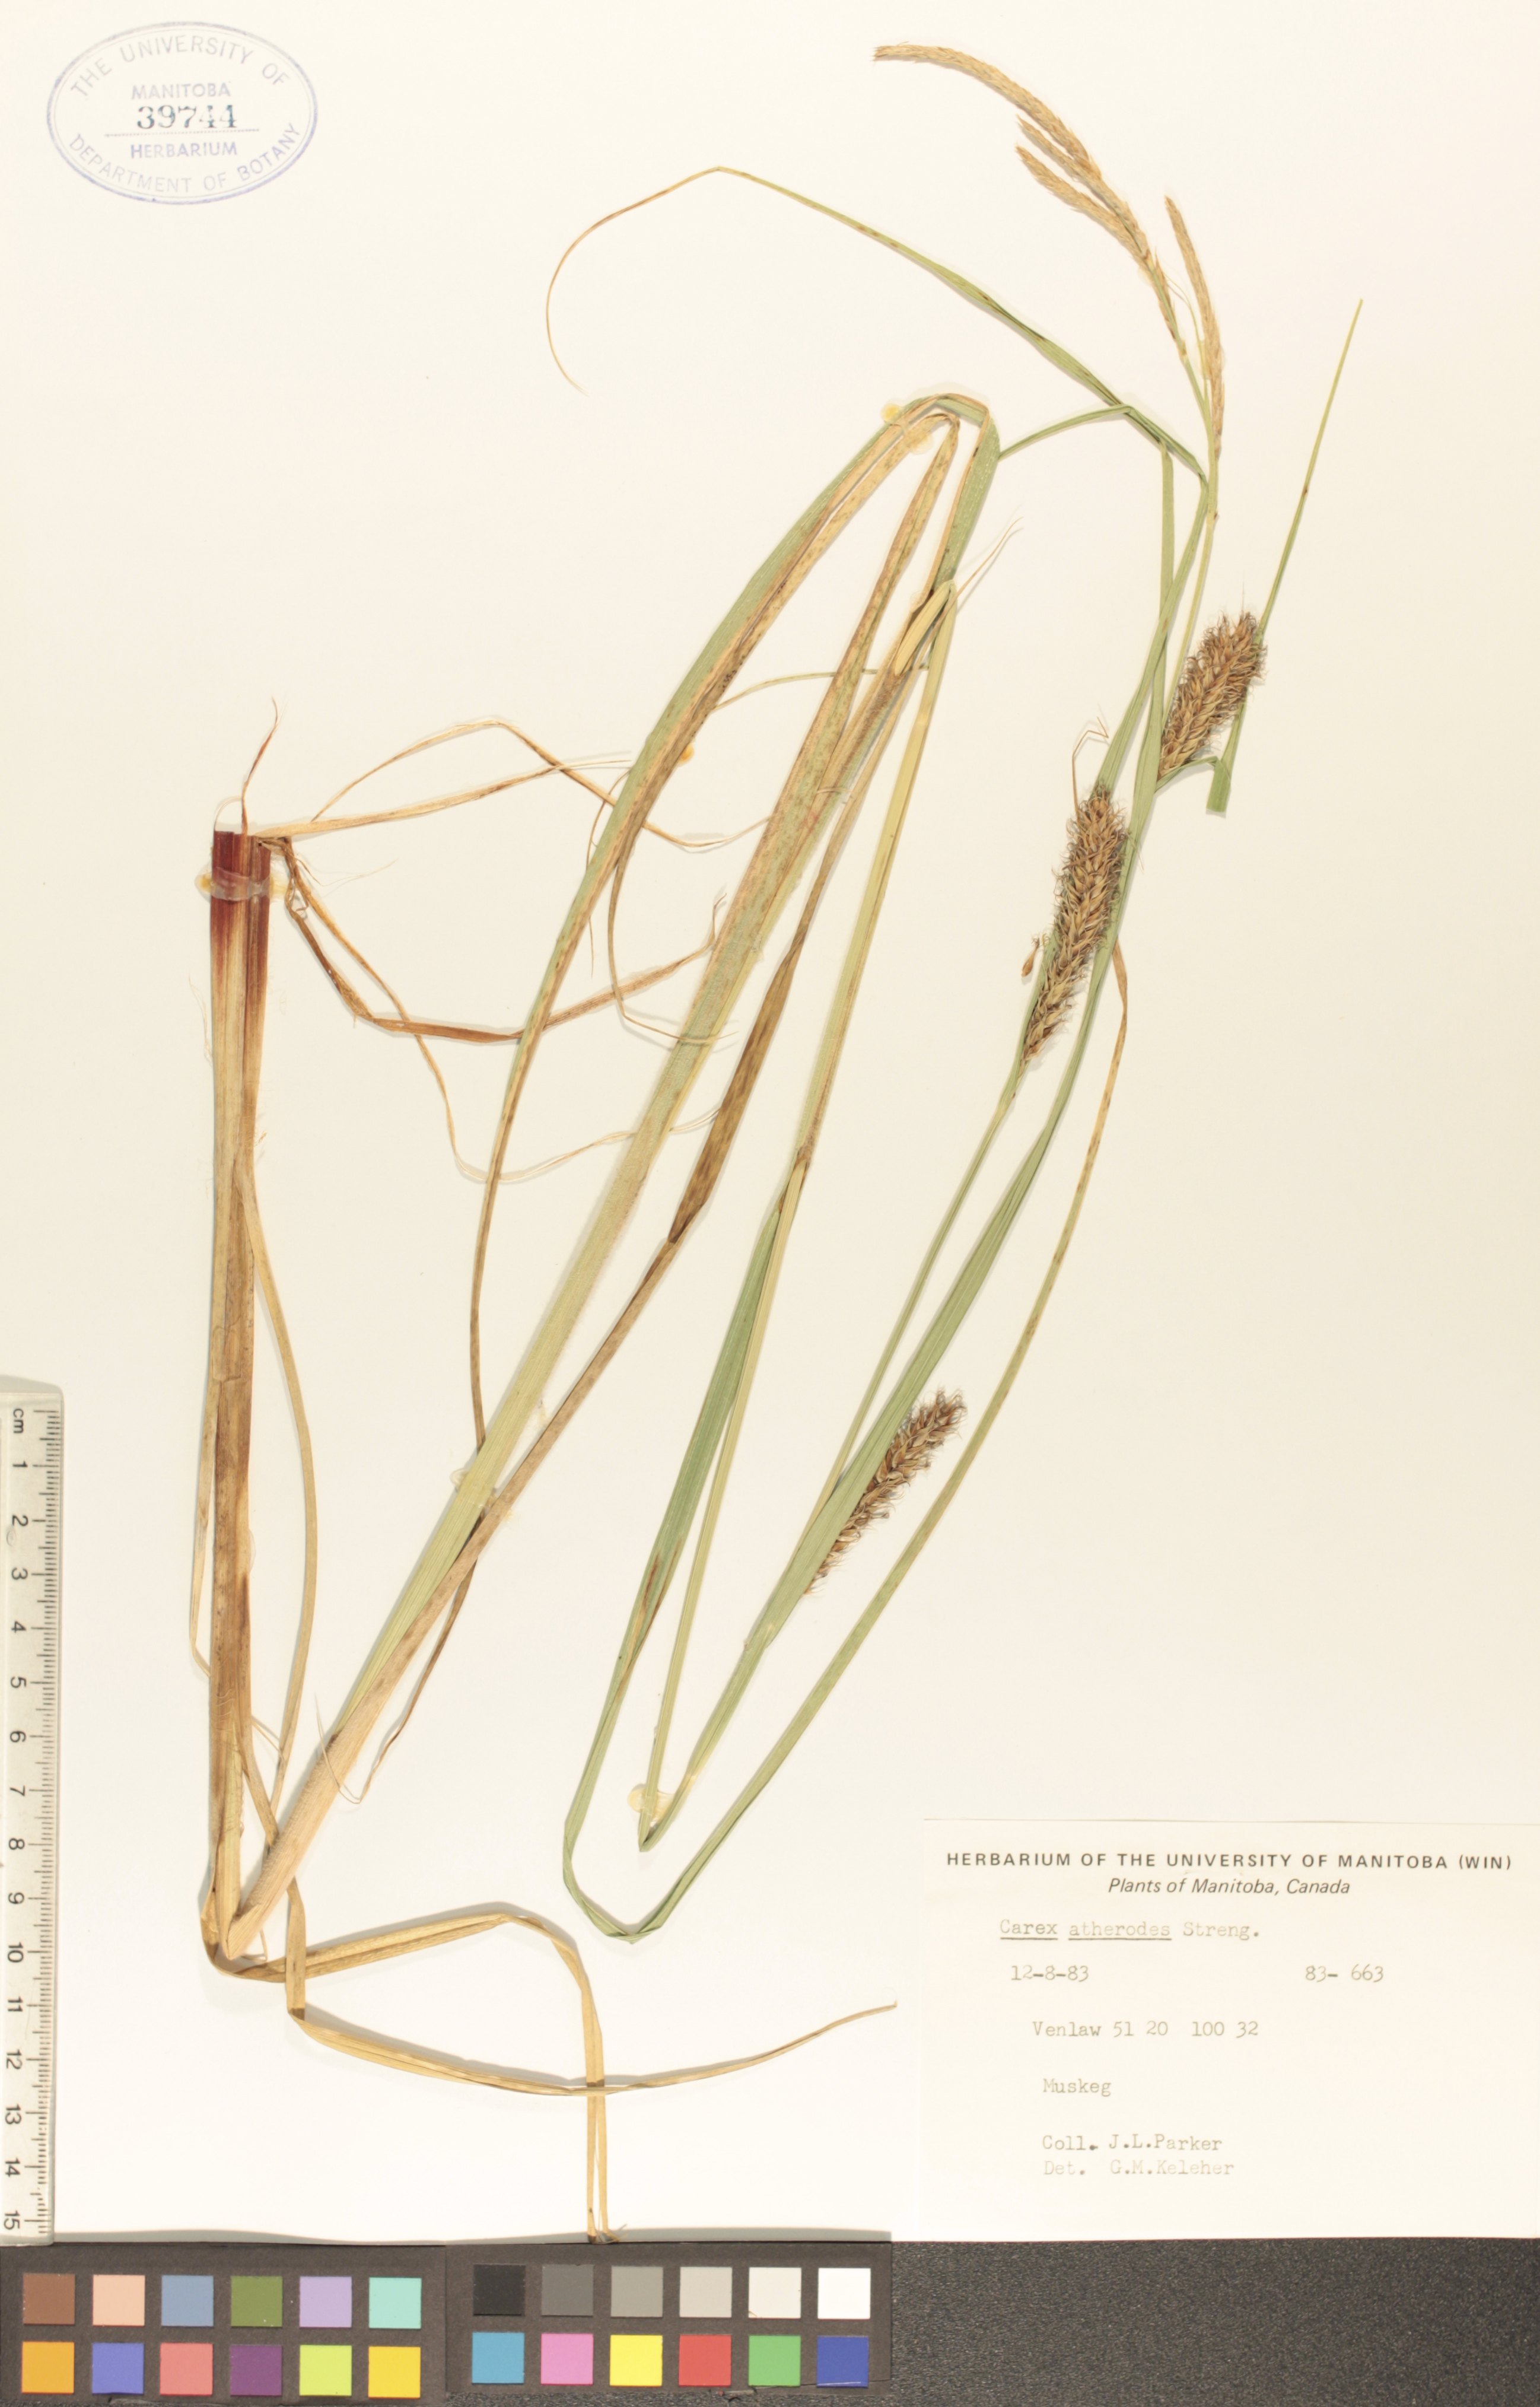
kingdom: Plantae
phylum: Tracheophyta
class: Liliopsida
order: Poales
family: Cyperaceae
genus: Carex
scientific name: Carex atherodes
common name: Wheat sedge
